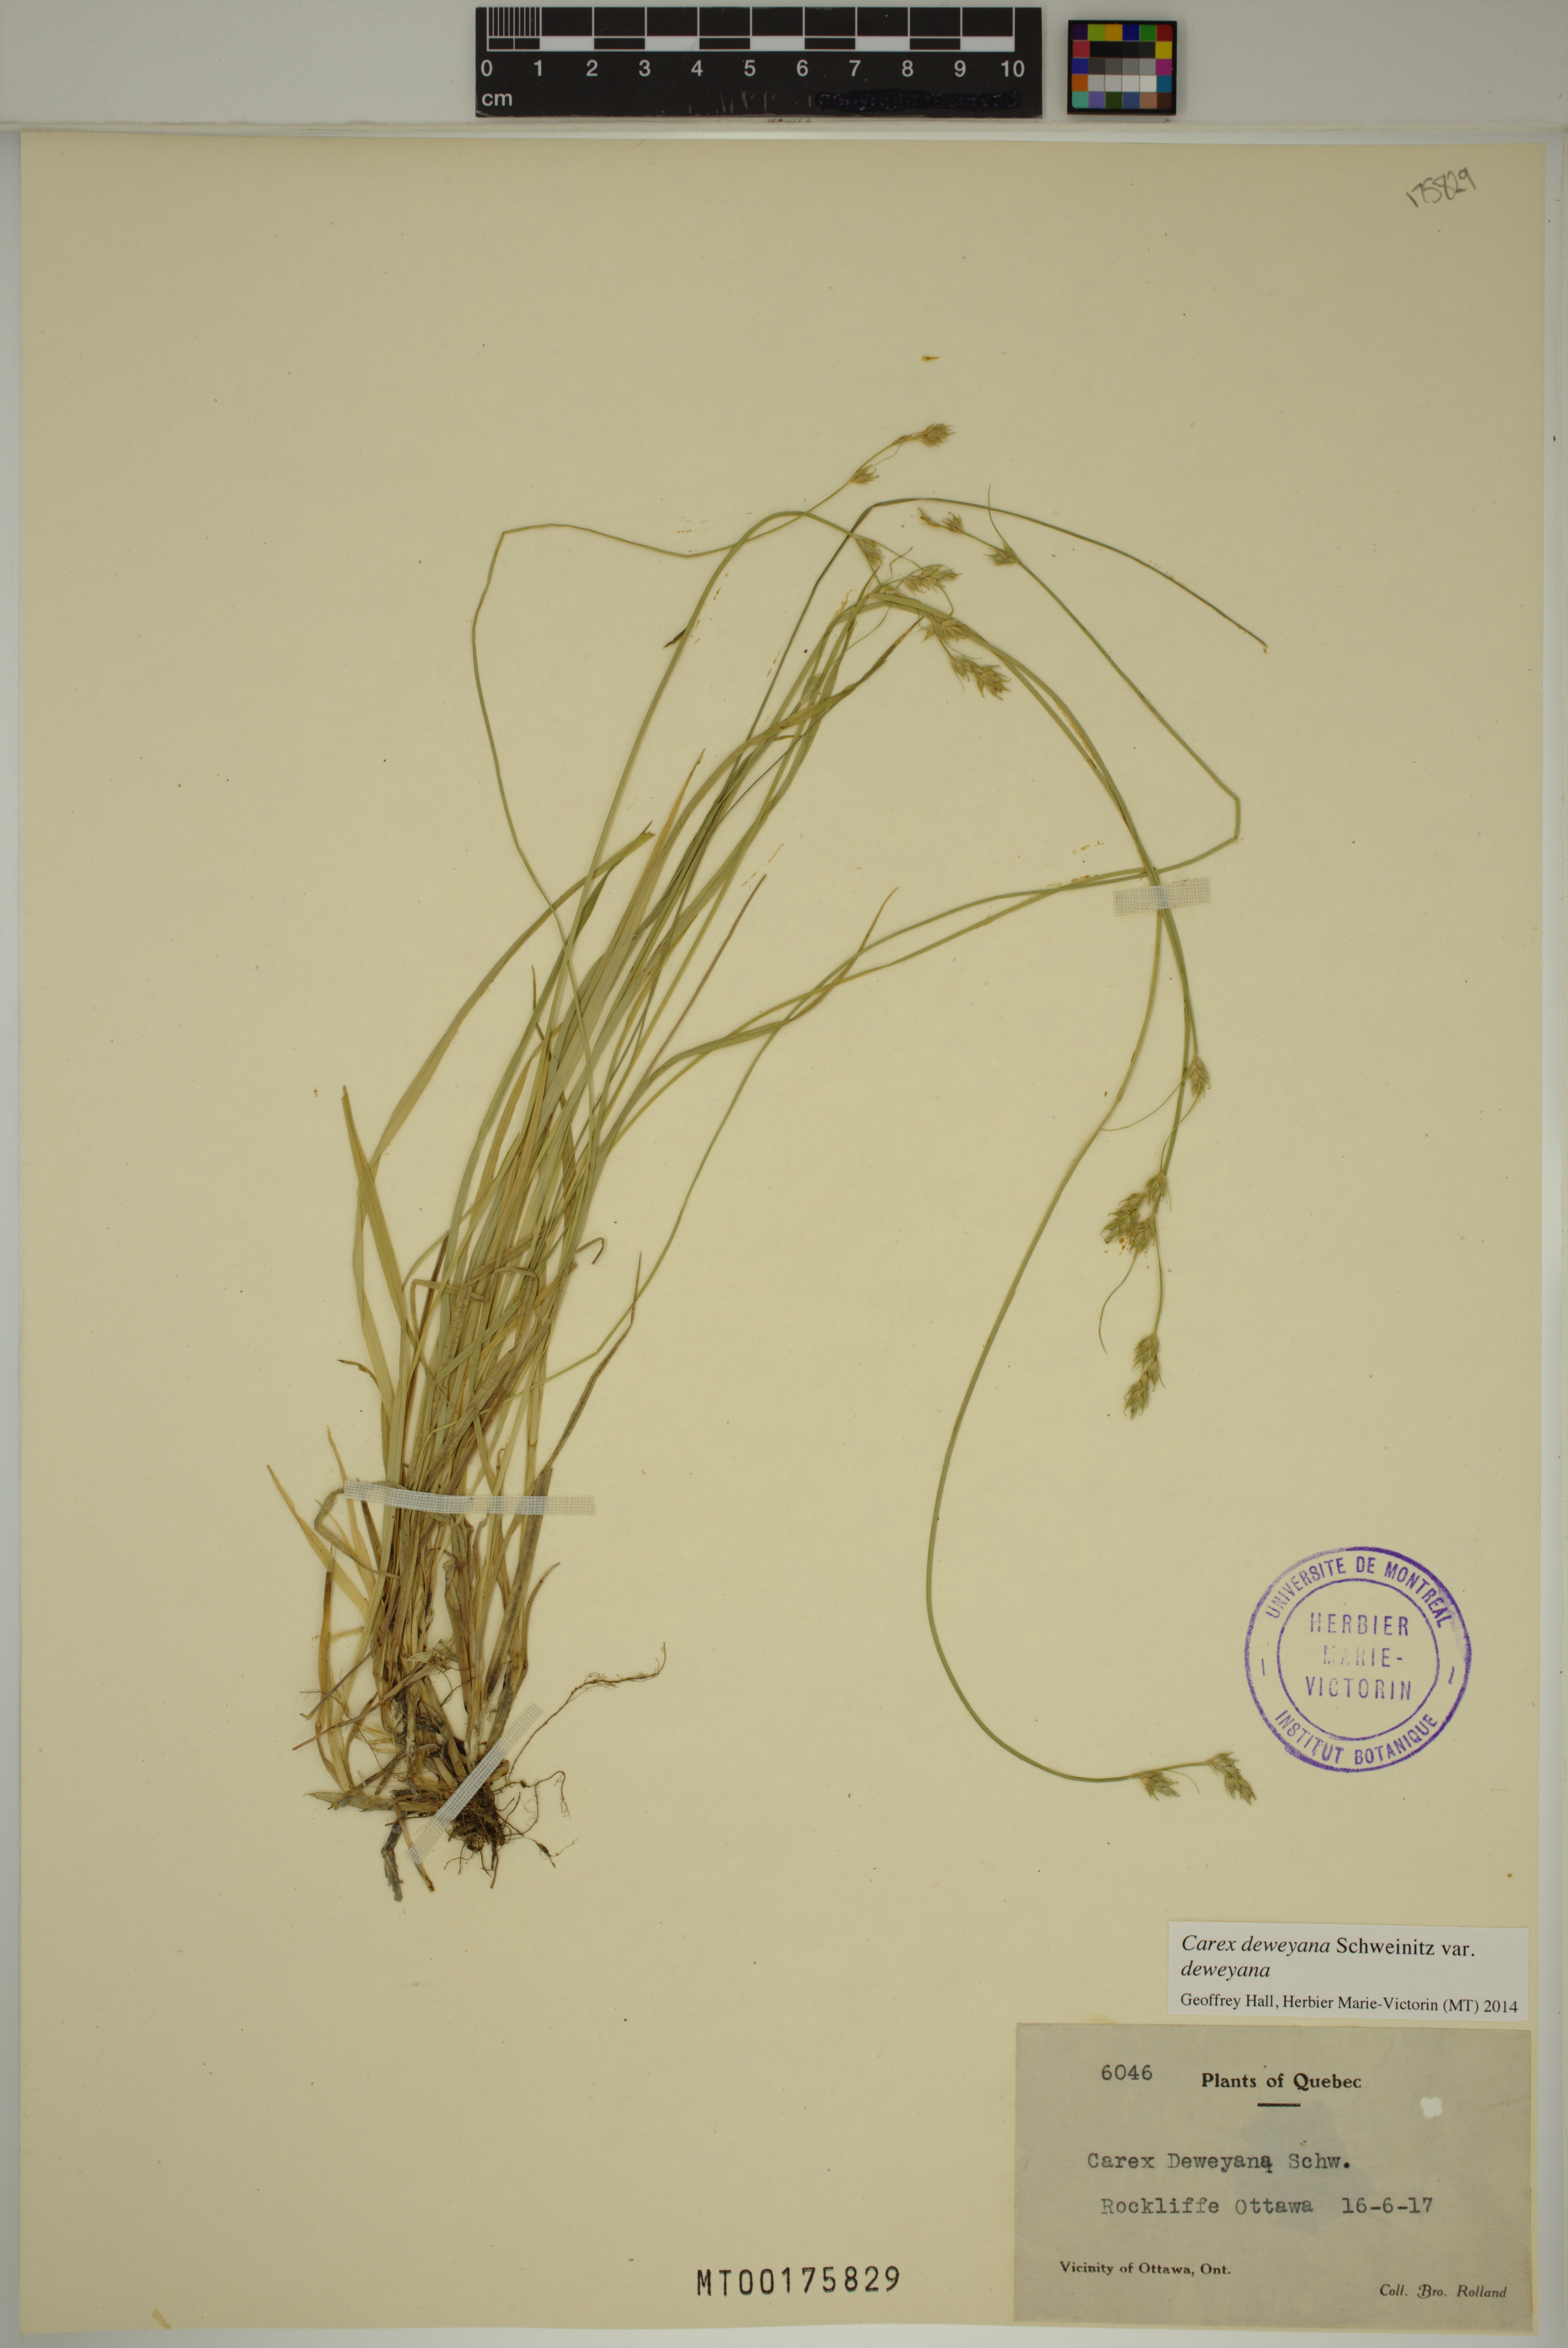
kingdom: Plantae
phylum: Tracheophyta
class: Liliopsida
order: Poales
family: Cyperaceae
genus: Carex
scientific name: Carex deweyana
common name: Dewey's sedge
